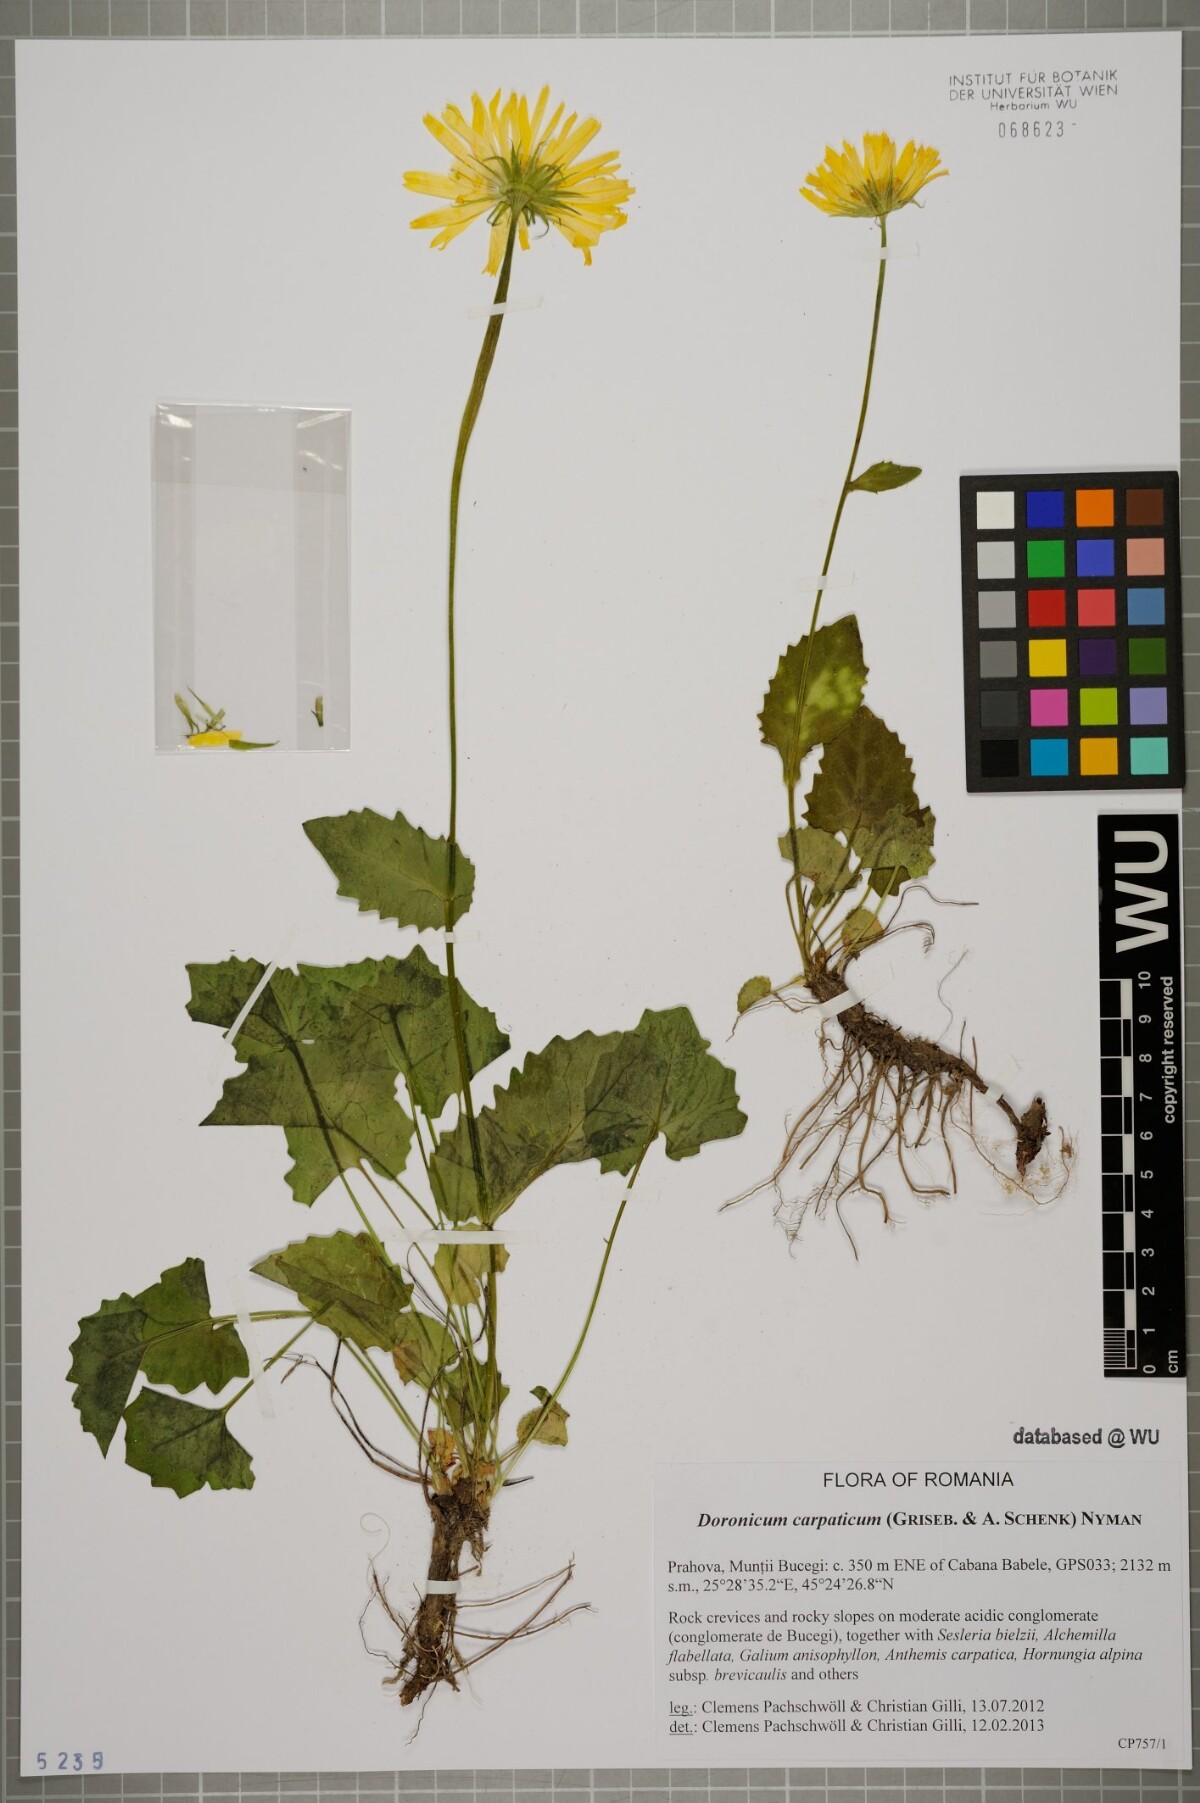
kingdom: Plantae
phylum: Tracheophyta
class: Magnoliopsida
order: Asterales
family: Asteraceae
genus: Doronicum
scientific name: Doronicum carpaticum
